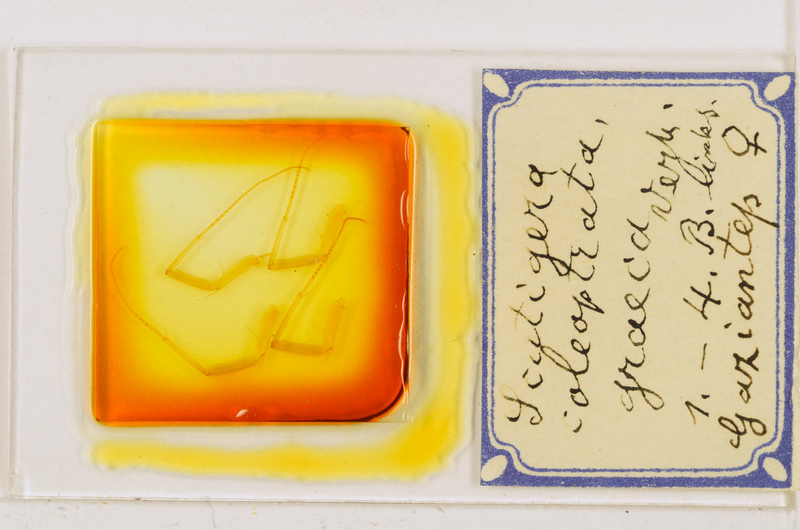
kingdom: Animalia
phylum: Arthropoda
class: Chilopoda
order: Scutigeromorpha
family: Scutigeridae
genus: Scutigera
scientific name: Scutigera coleoptrata
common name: House centipede
